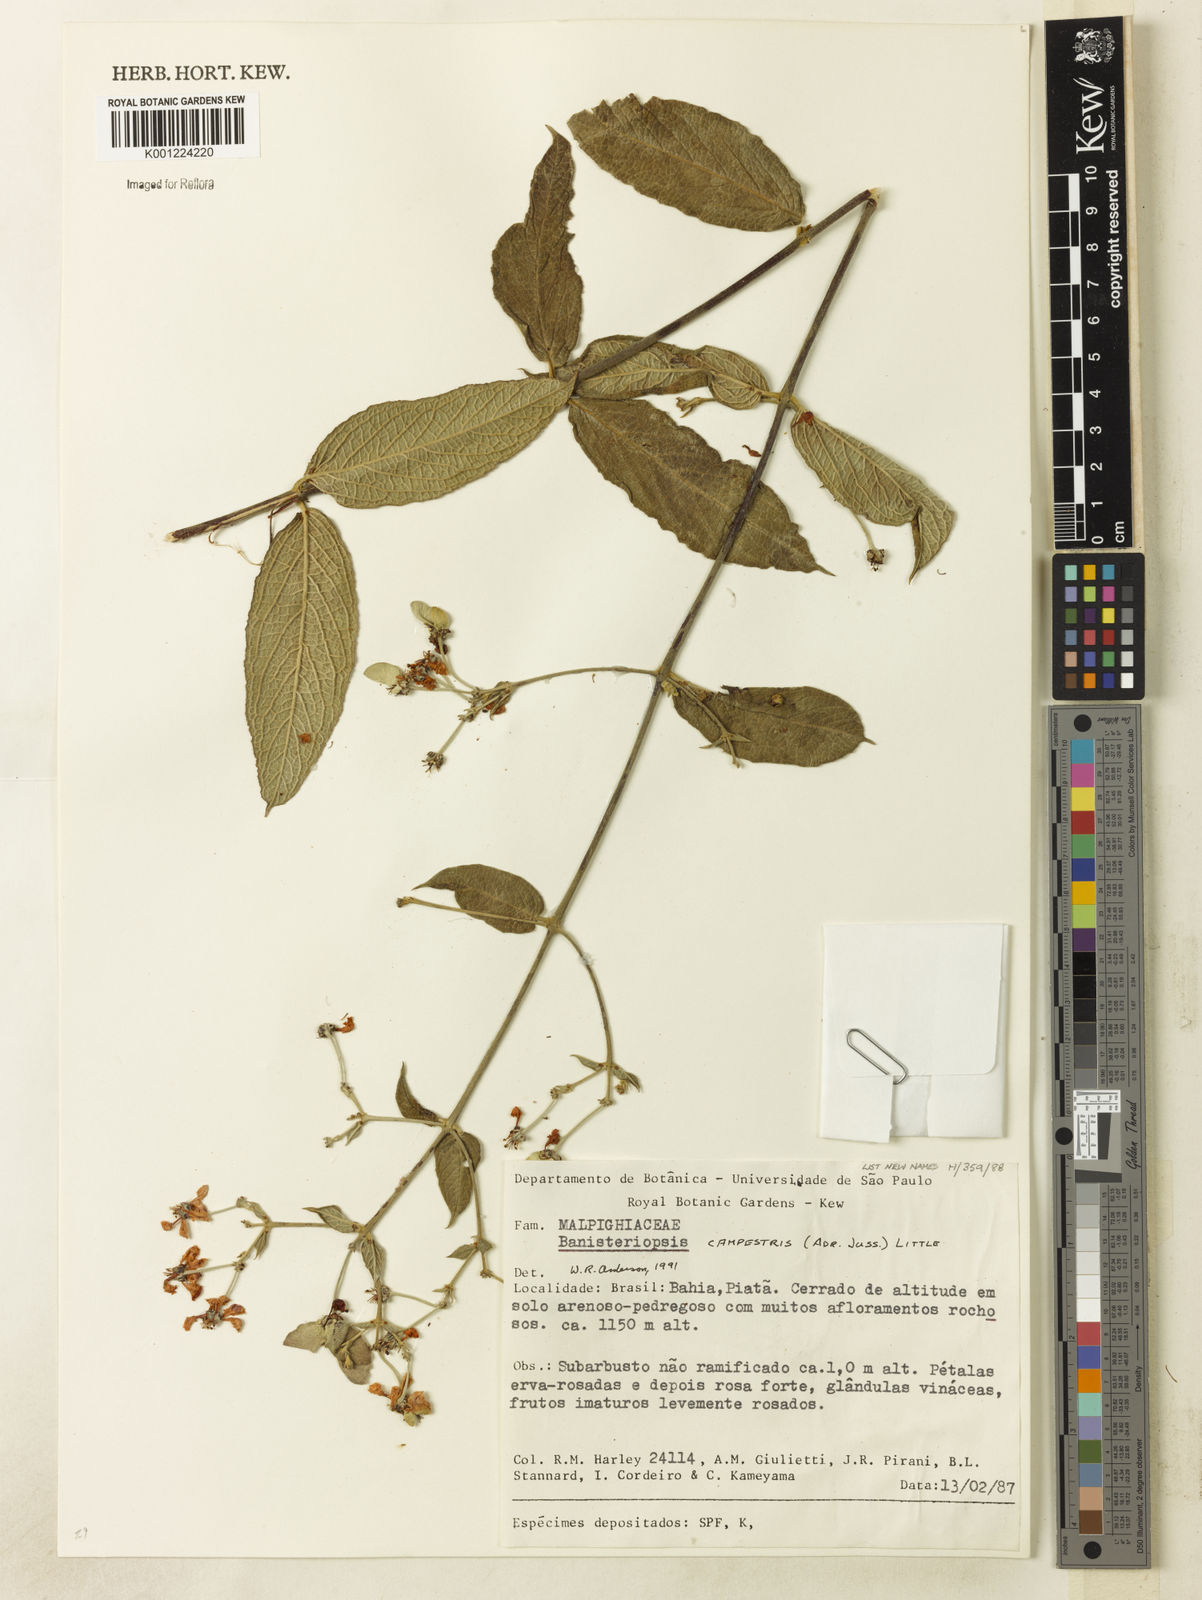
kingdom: Plantae
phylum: Tracheophyta
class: Magnoliopsida
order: Malpighiales
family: Malpighiaceae
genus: Banisteriopsis
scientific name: Banisteriopsis campestris
